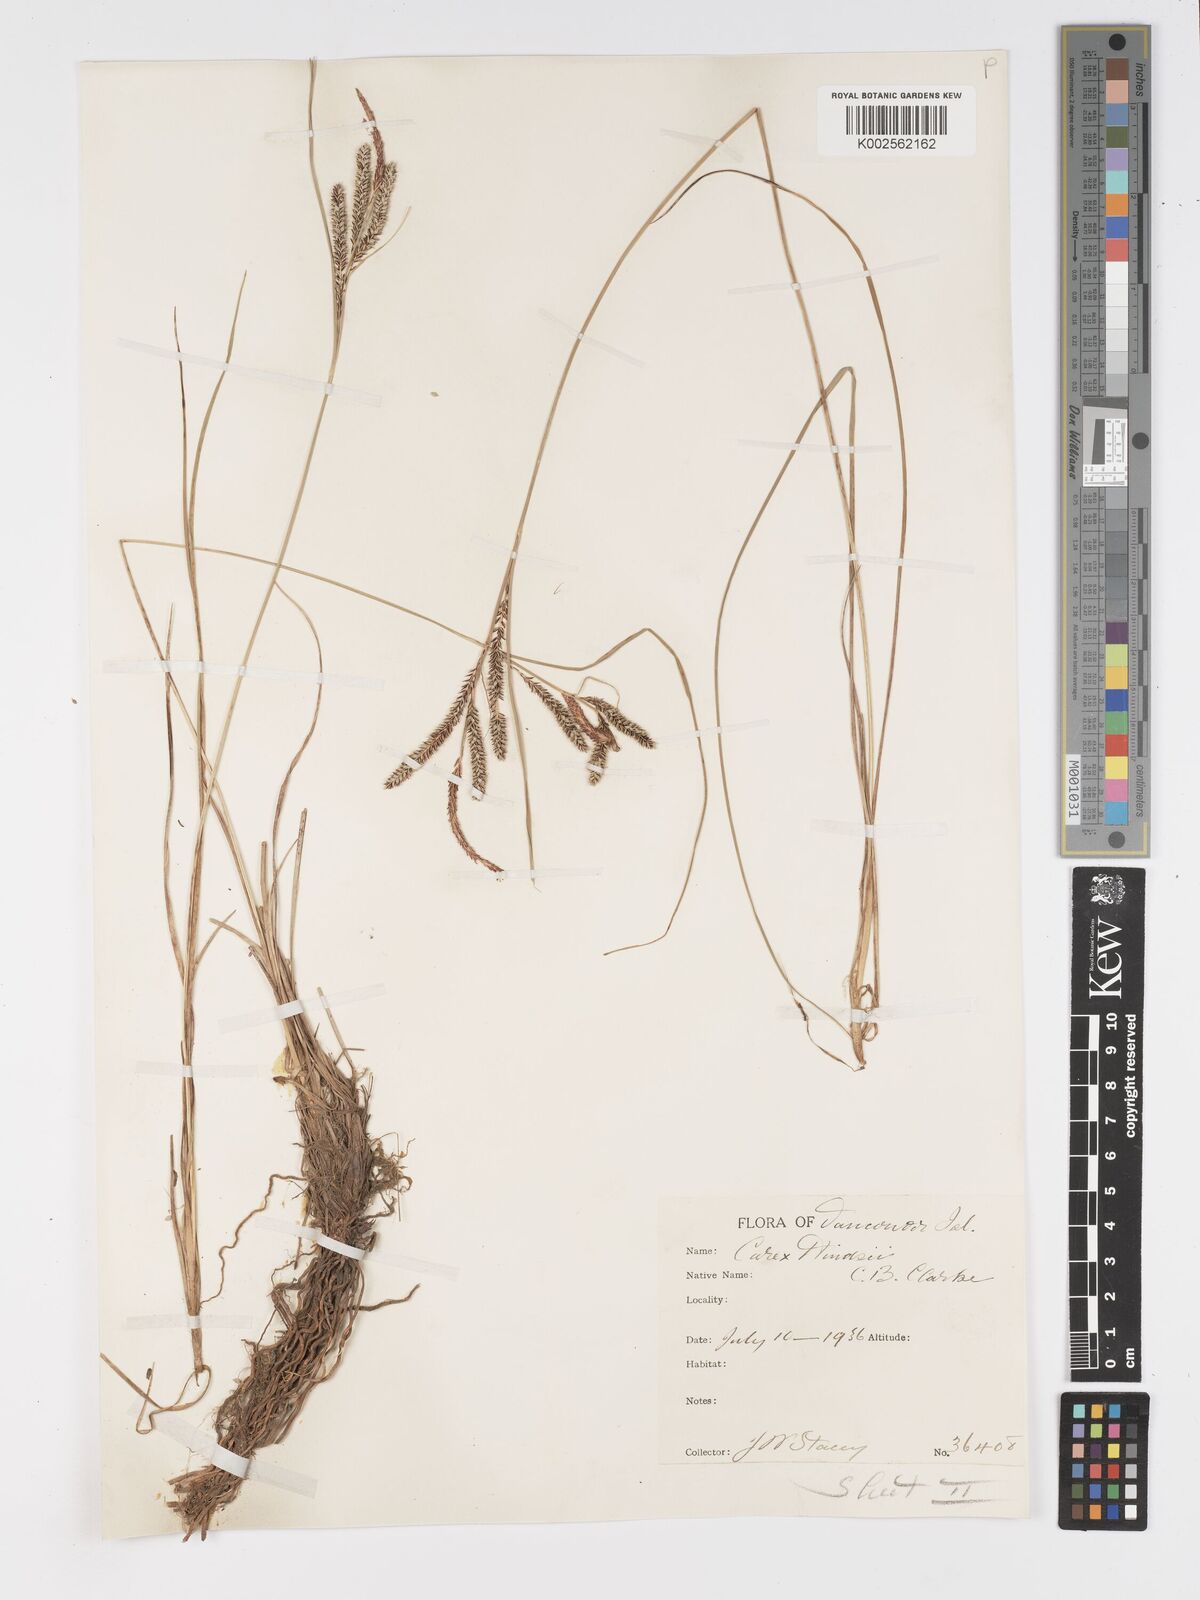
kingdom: Plantae
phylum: Tracheophyta
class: Liliopsida
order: Poales
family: Cyperaceae
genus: Carex
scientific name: Carex kelloggii
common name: Kellogg's sedge
